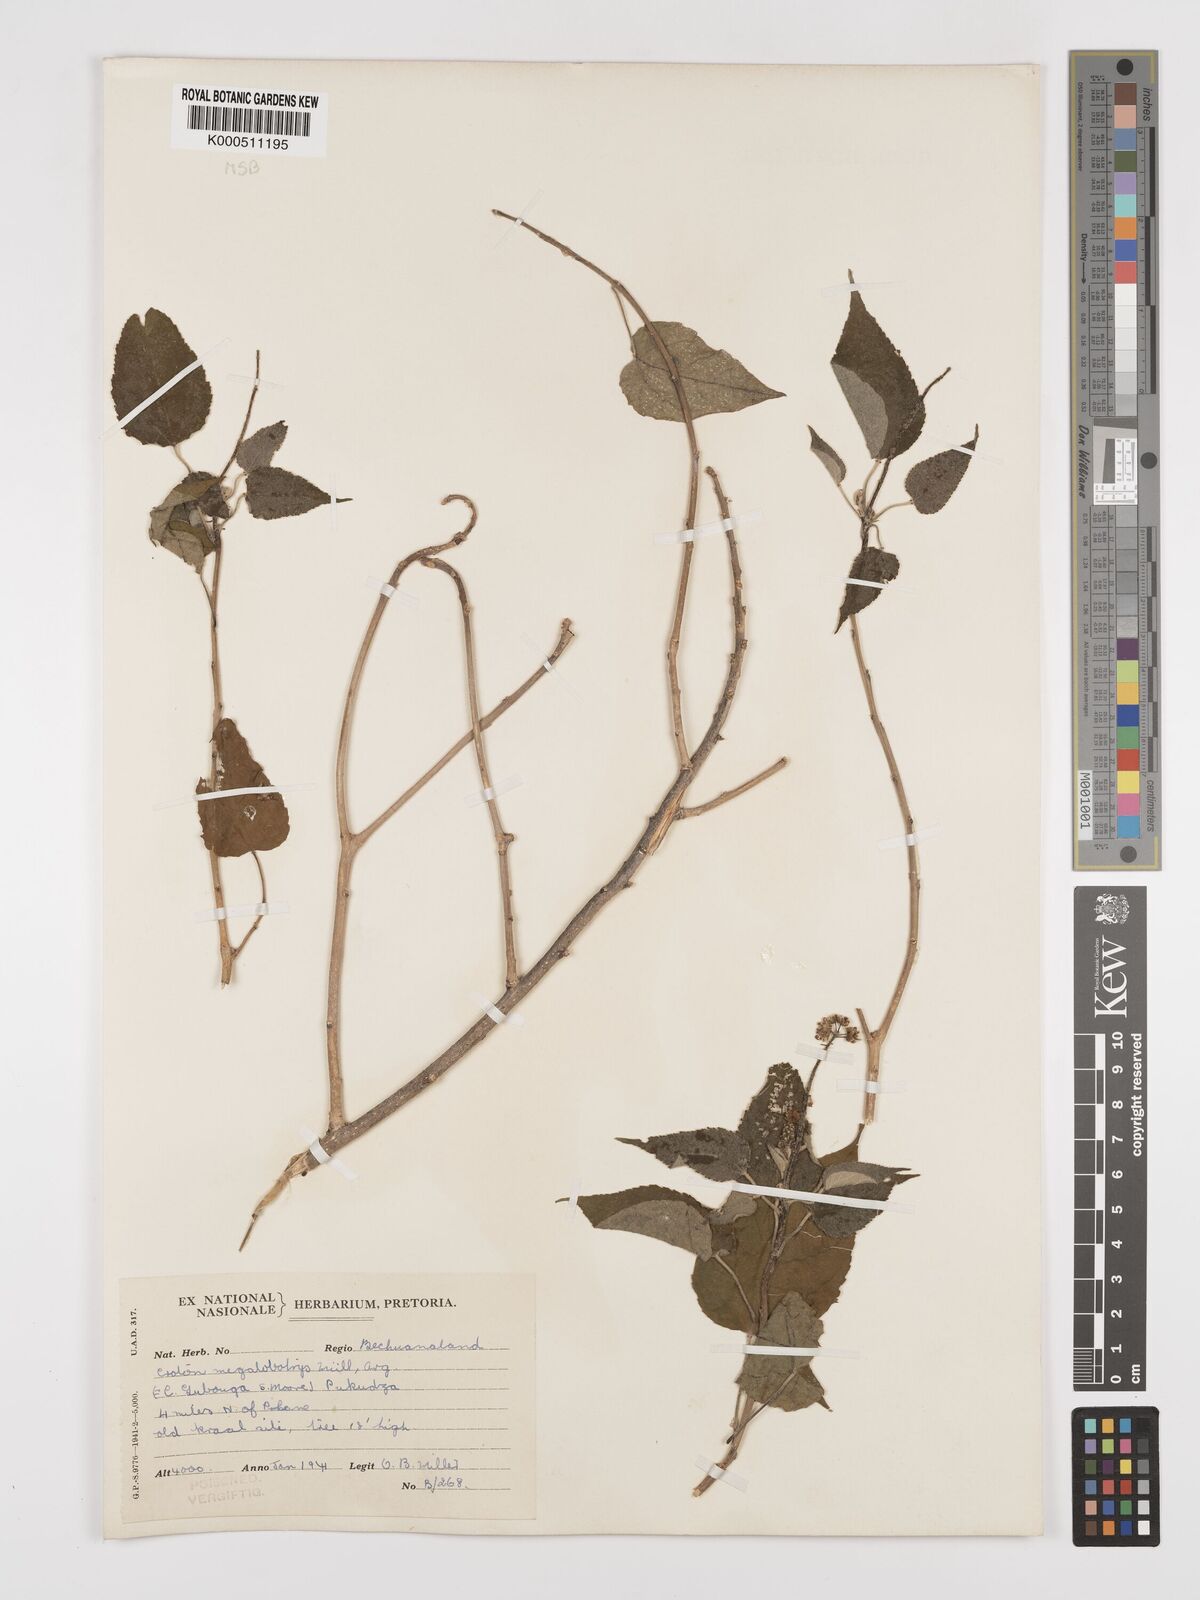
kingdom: Plantae
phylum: Tracheophyta
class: Magnoliopsida
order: Malpighiales
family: Euphorbiaceae
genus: Croton
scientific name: Croton
